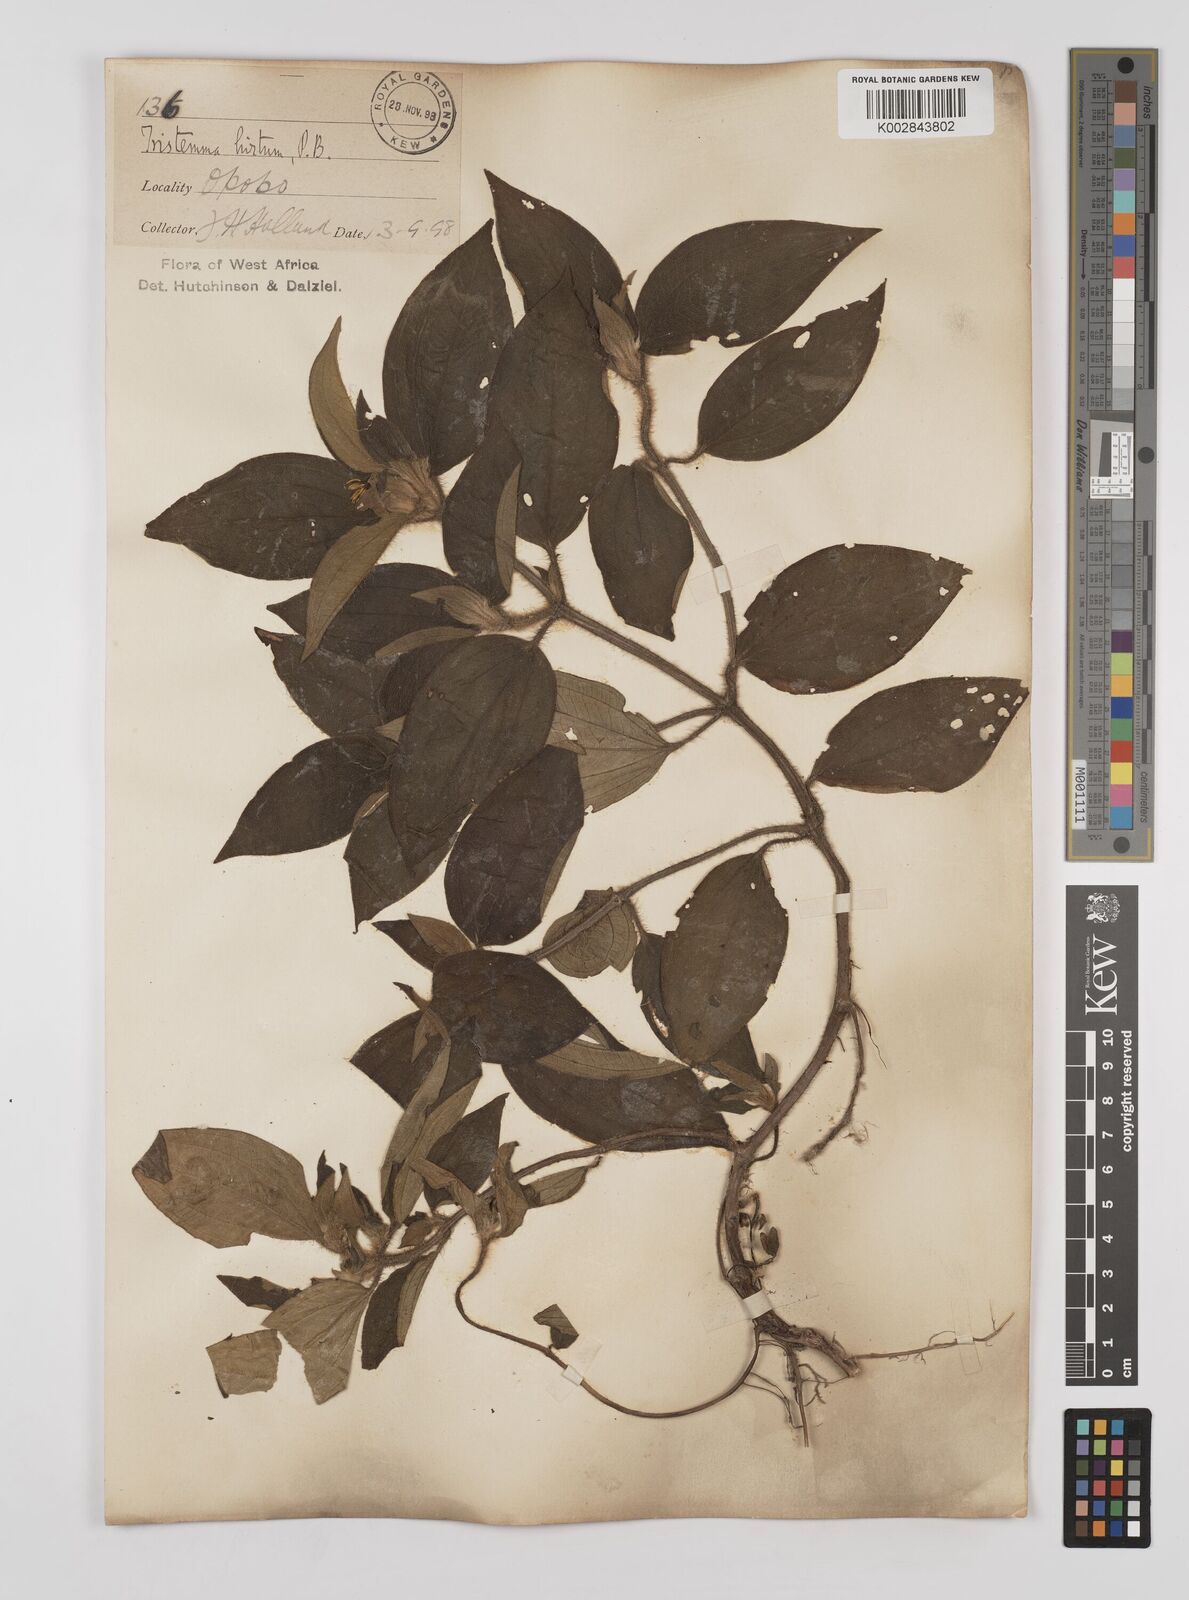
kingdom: Plantae
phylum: Tracheophyta
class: Magnoliopsida
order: Myrtales
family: Melastomataceae
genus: Tristemma
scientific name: Tristemma hirtum
